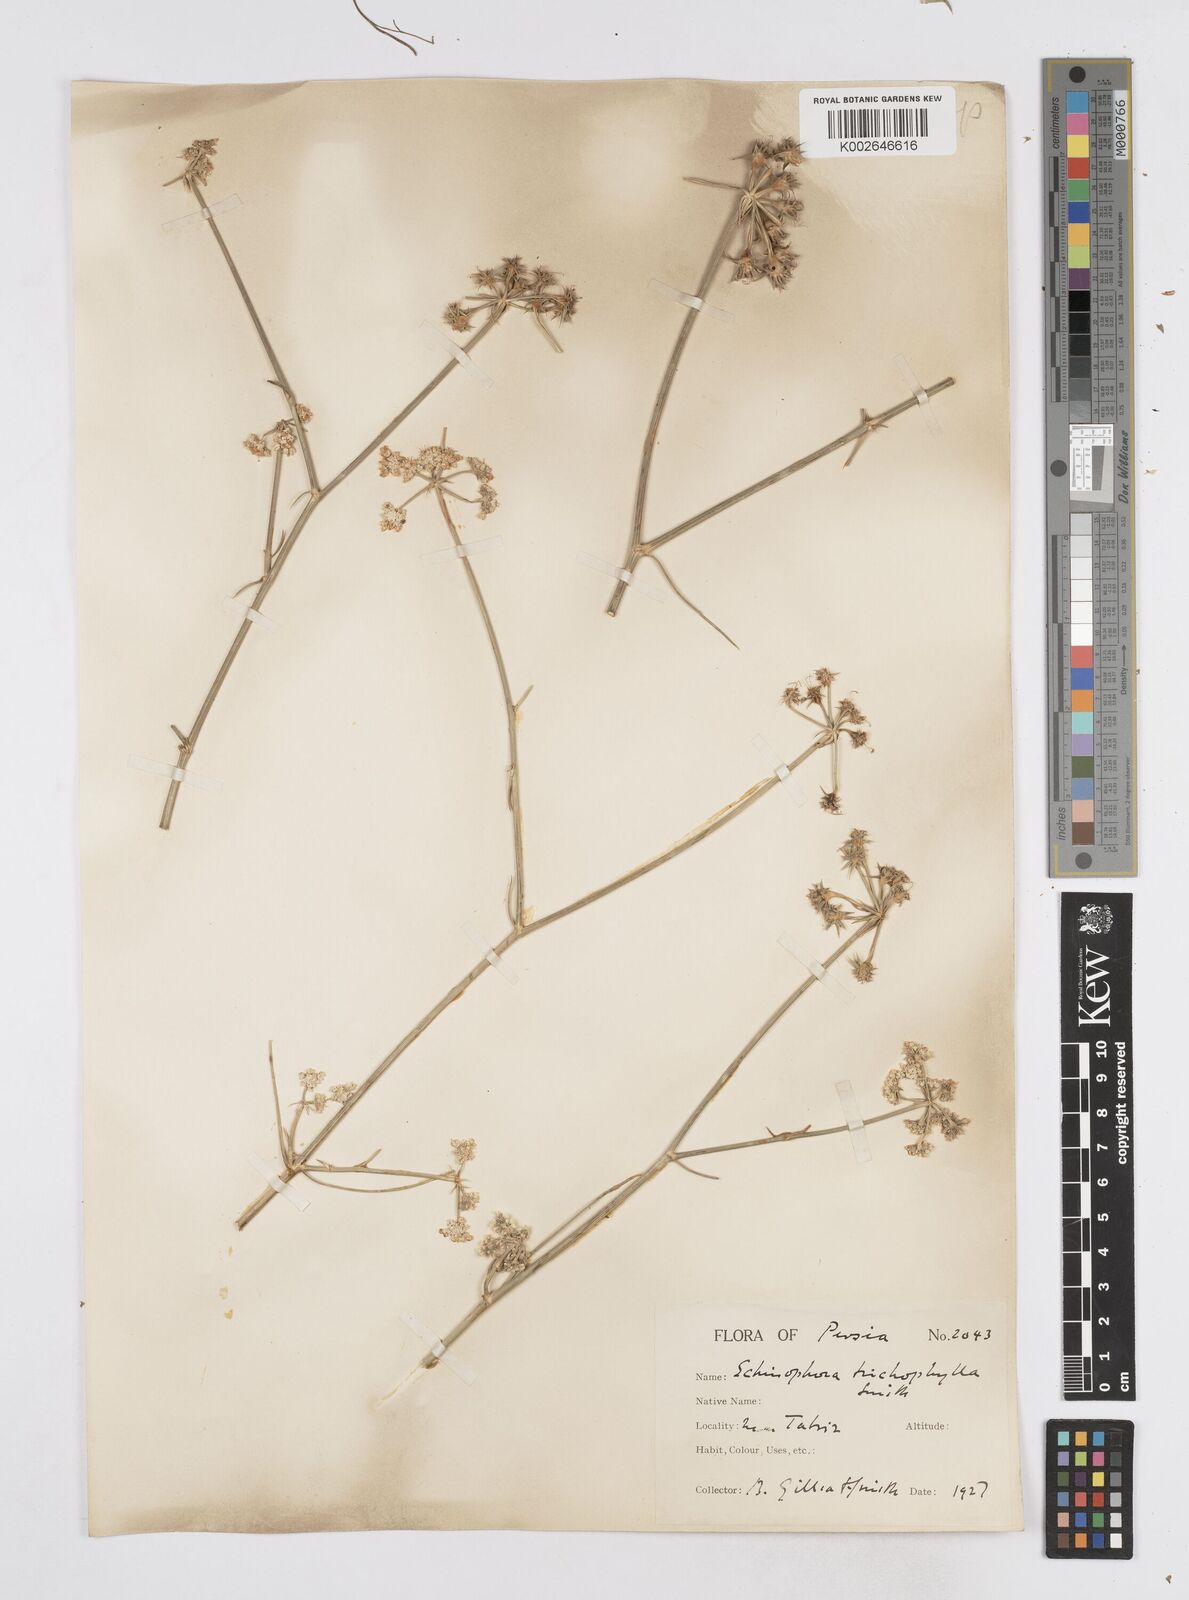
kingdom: Plantae
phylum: Tracheophyta
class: Magnoliopsida
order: Apiales
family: Apiaceae
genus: Echinophora
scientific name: Echinophora trichophylla
